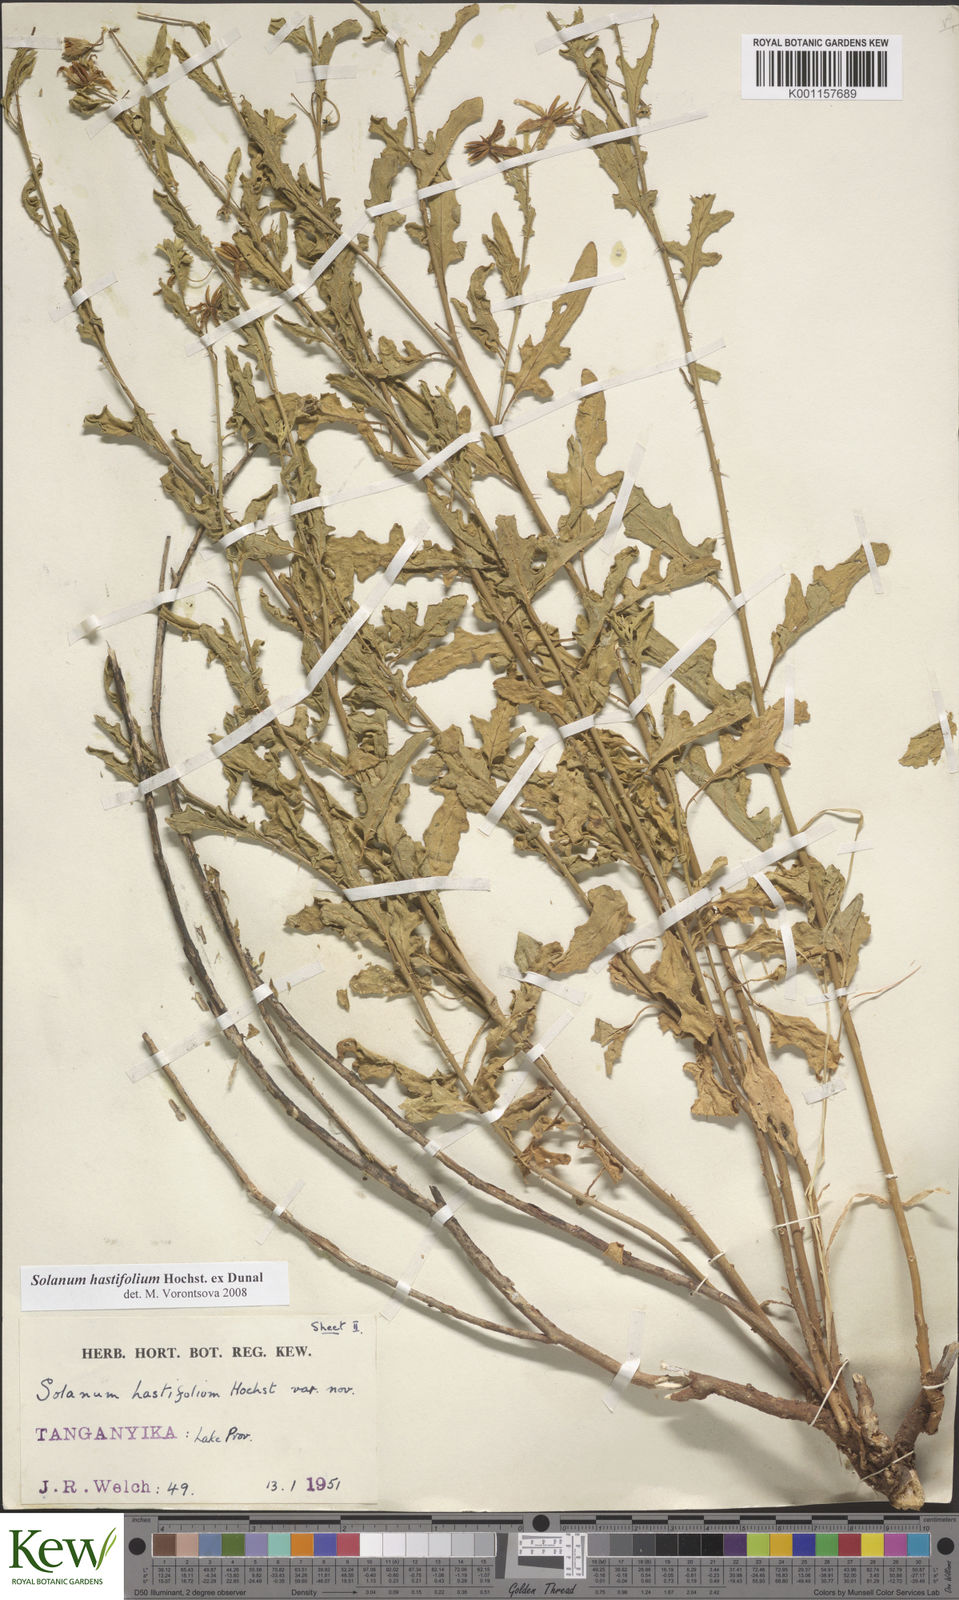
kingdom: Plantae
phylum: Tracheophyta
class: Magnoliopsida
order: Solanales
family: Solanaceae
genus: Solanum
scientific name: Solanum hastifolium
